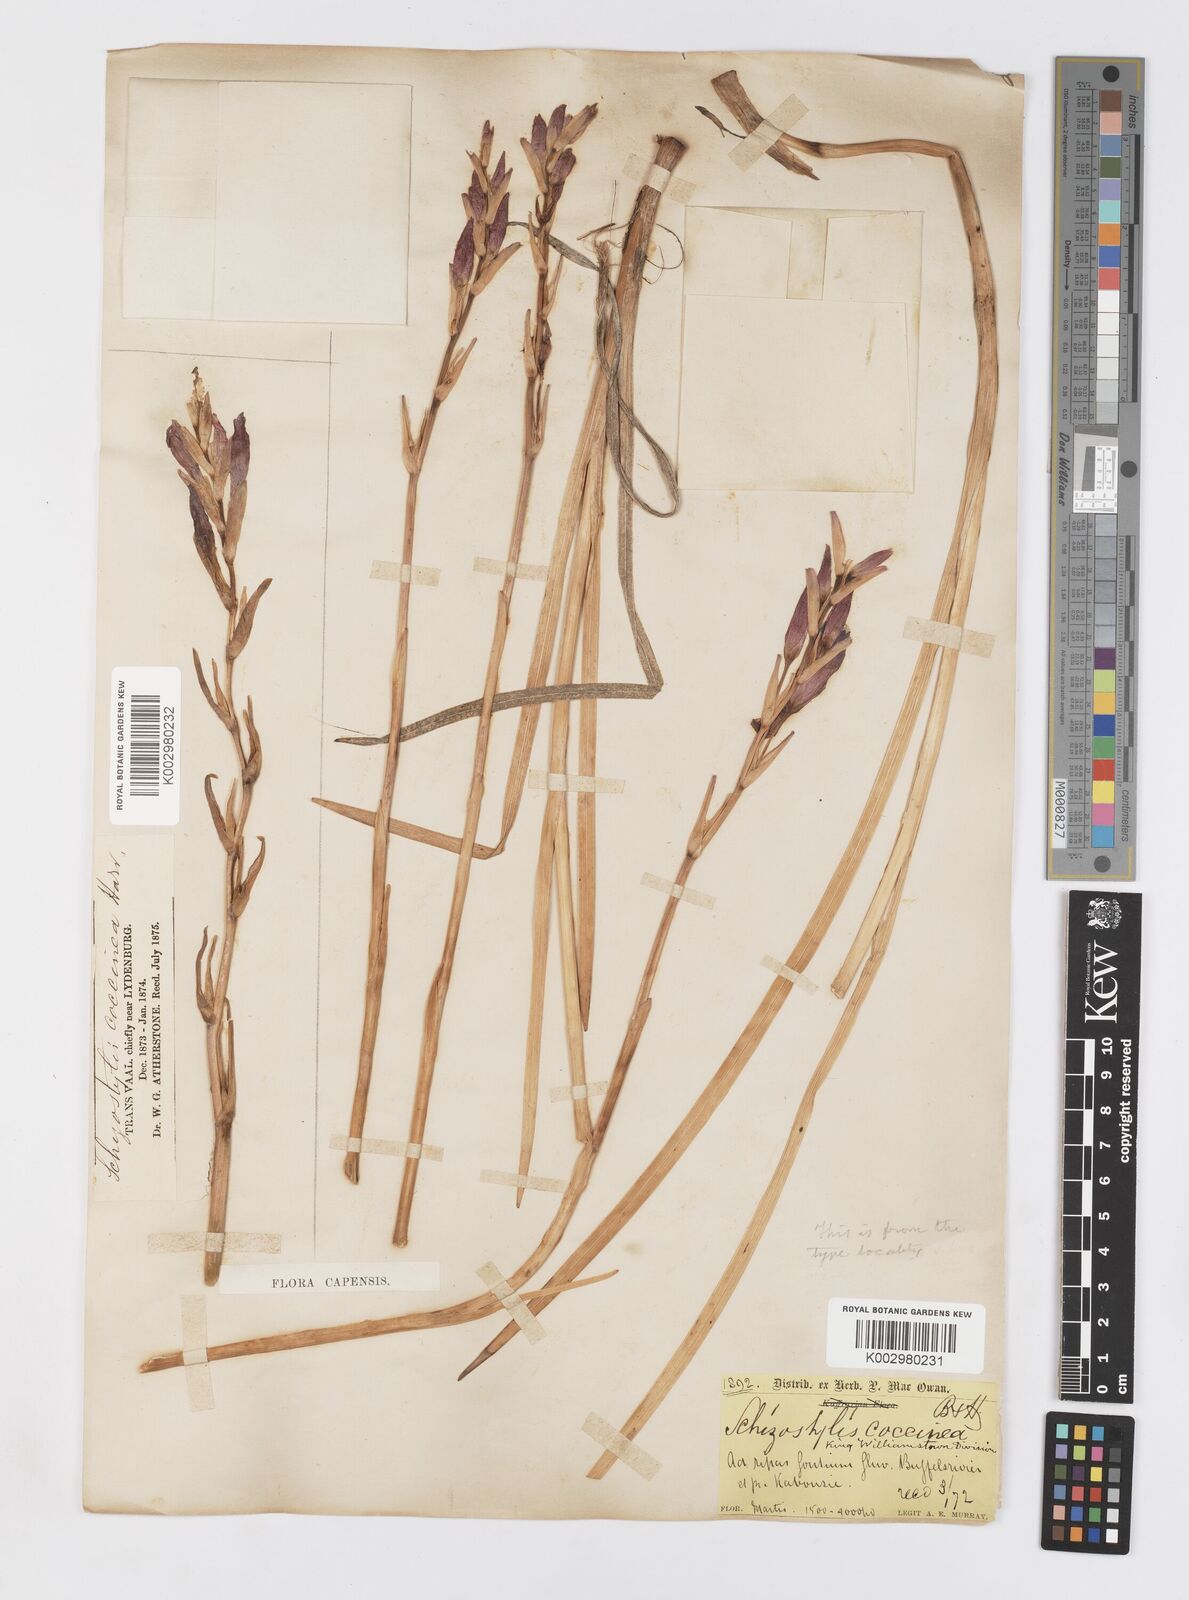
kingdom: Plantae
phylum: Tracheophyta
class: Liliopsida
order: Asparagales
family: Iridaceae
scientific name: Iridaceae
